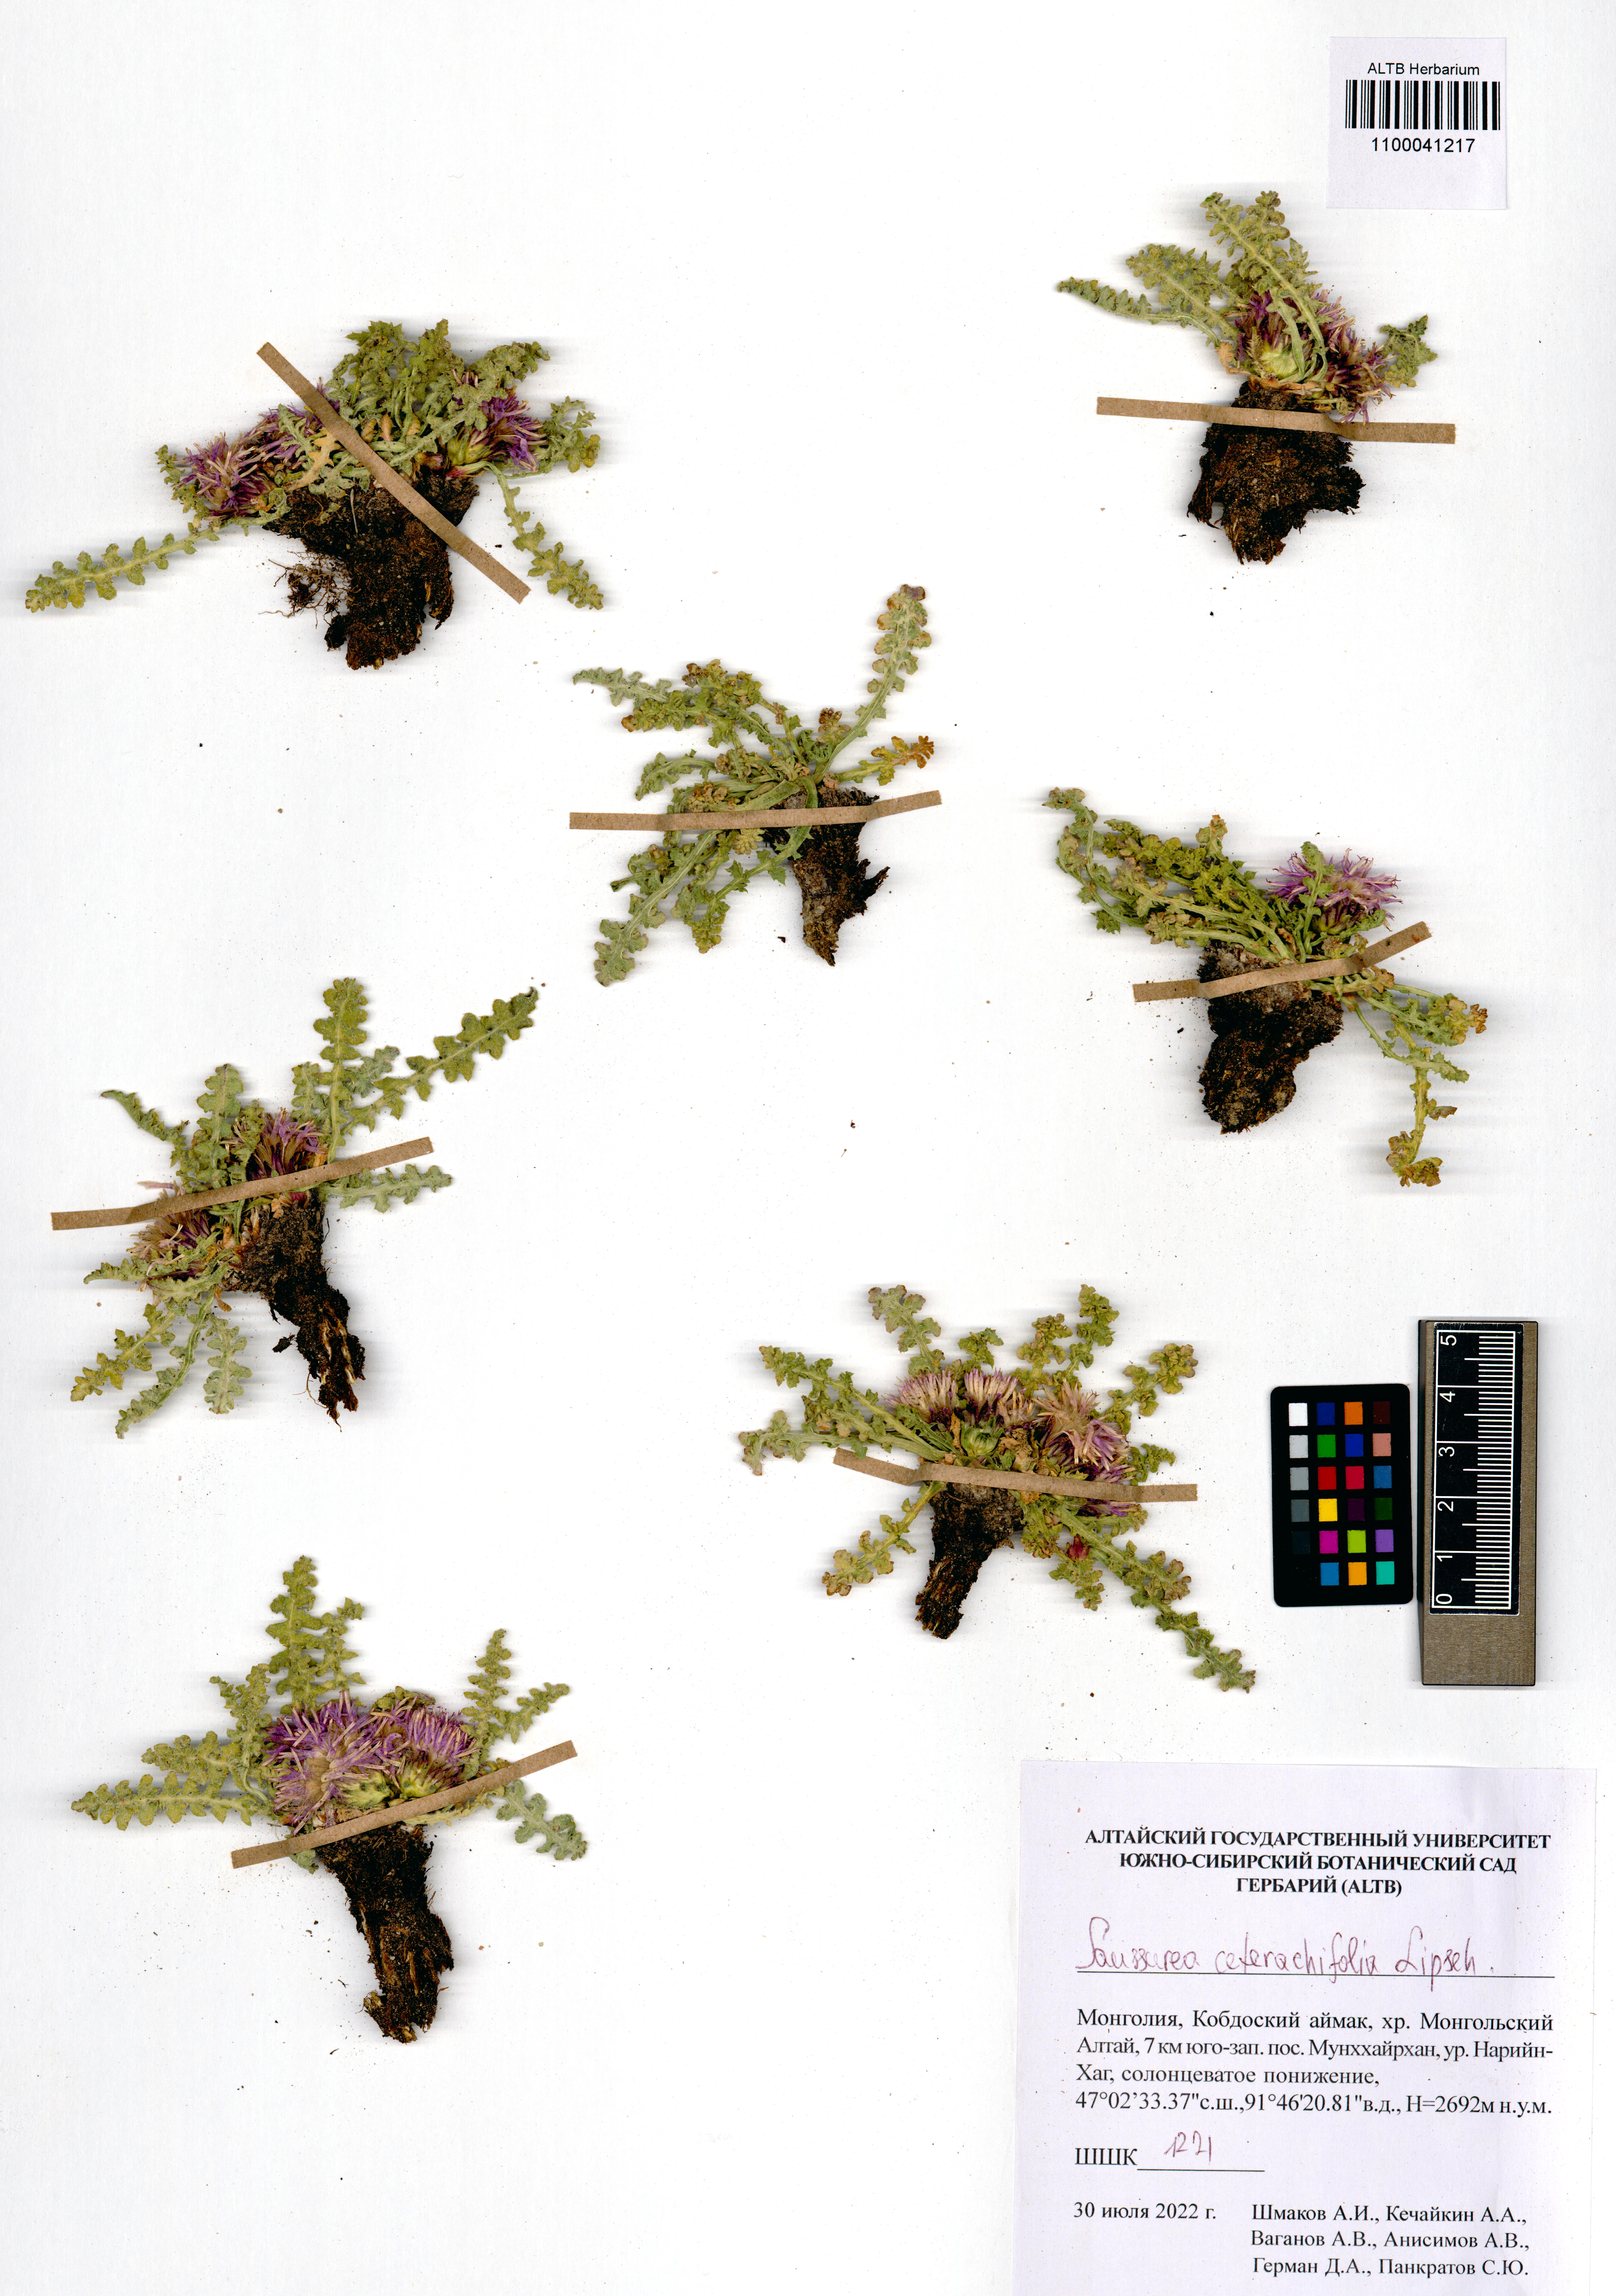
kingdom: Plantae
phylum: Tracheophyta
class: Magnoliopsida
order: Asterales
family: Asteraceae
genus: Saussurea
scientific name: Saussurea ceterachifolia
